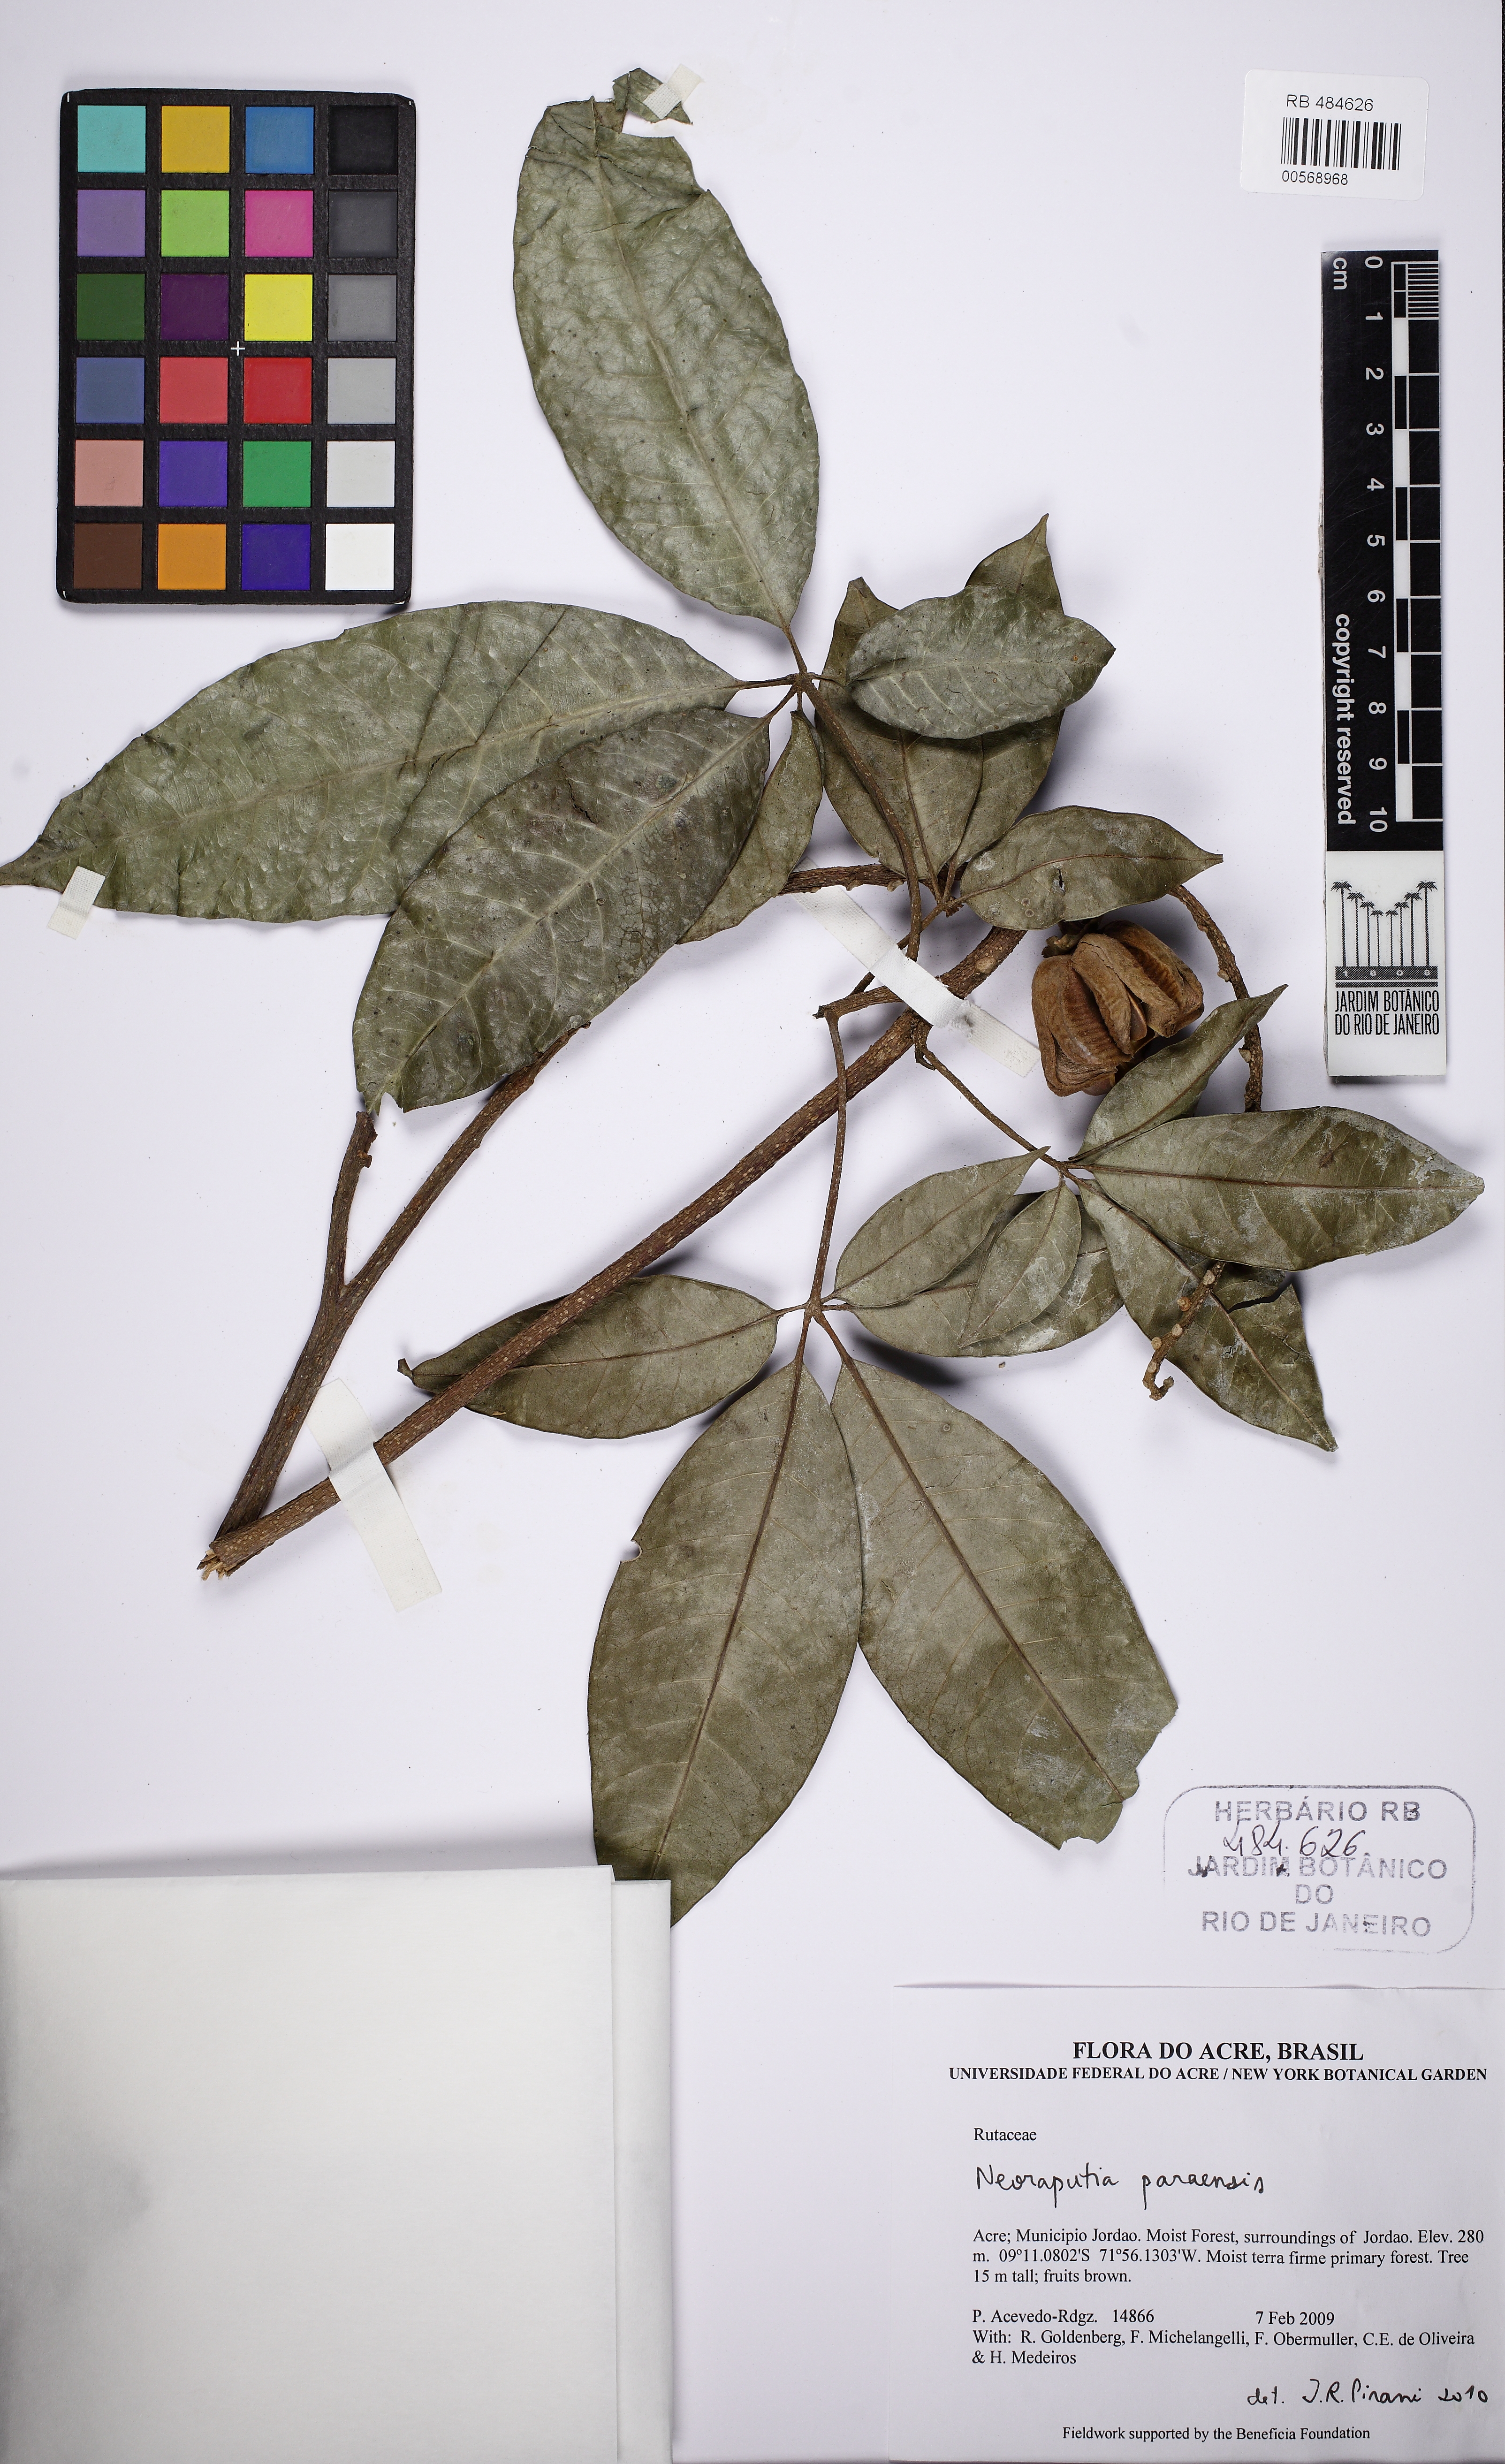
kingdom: Plantae
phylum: Tracheophyta
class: Magnoliopsida
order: Myrtales
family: Myrtaceae
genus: Myrcia
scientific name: Myrcia splendens
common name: Surinam cherry
